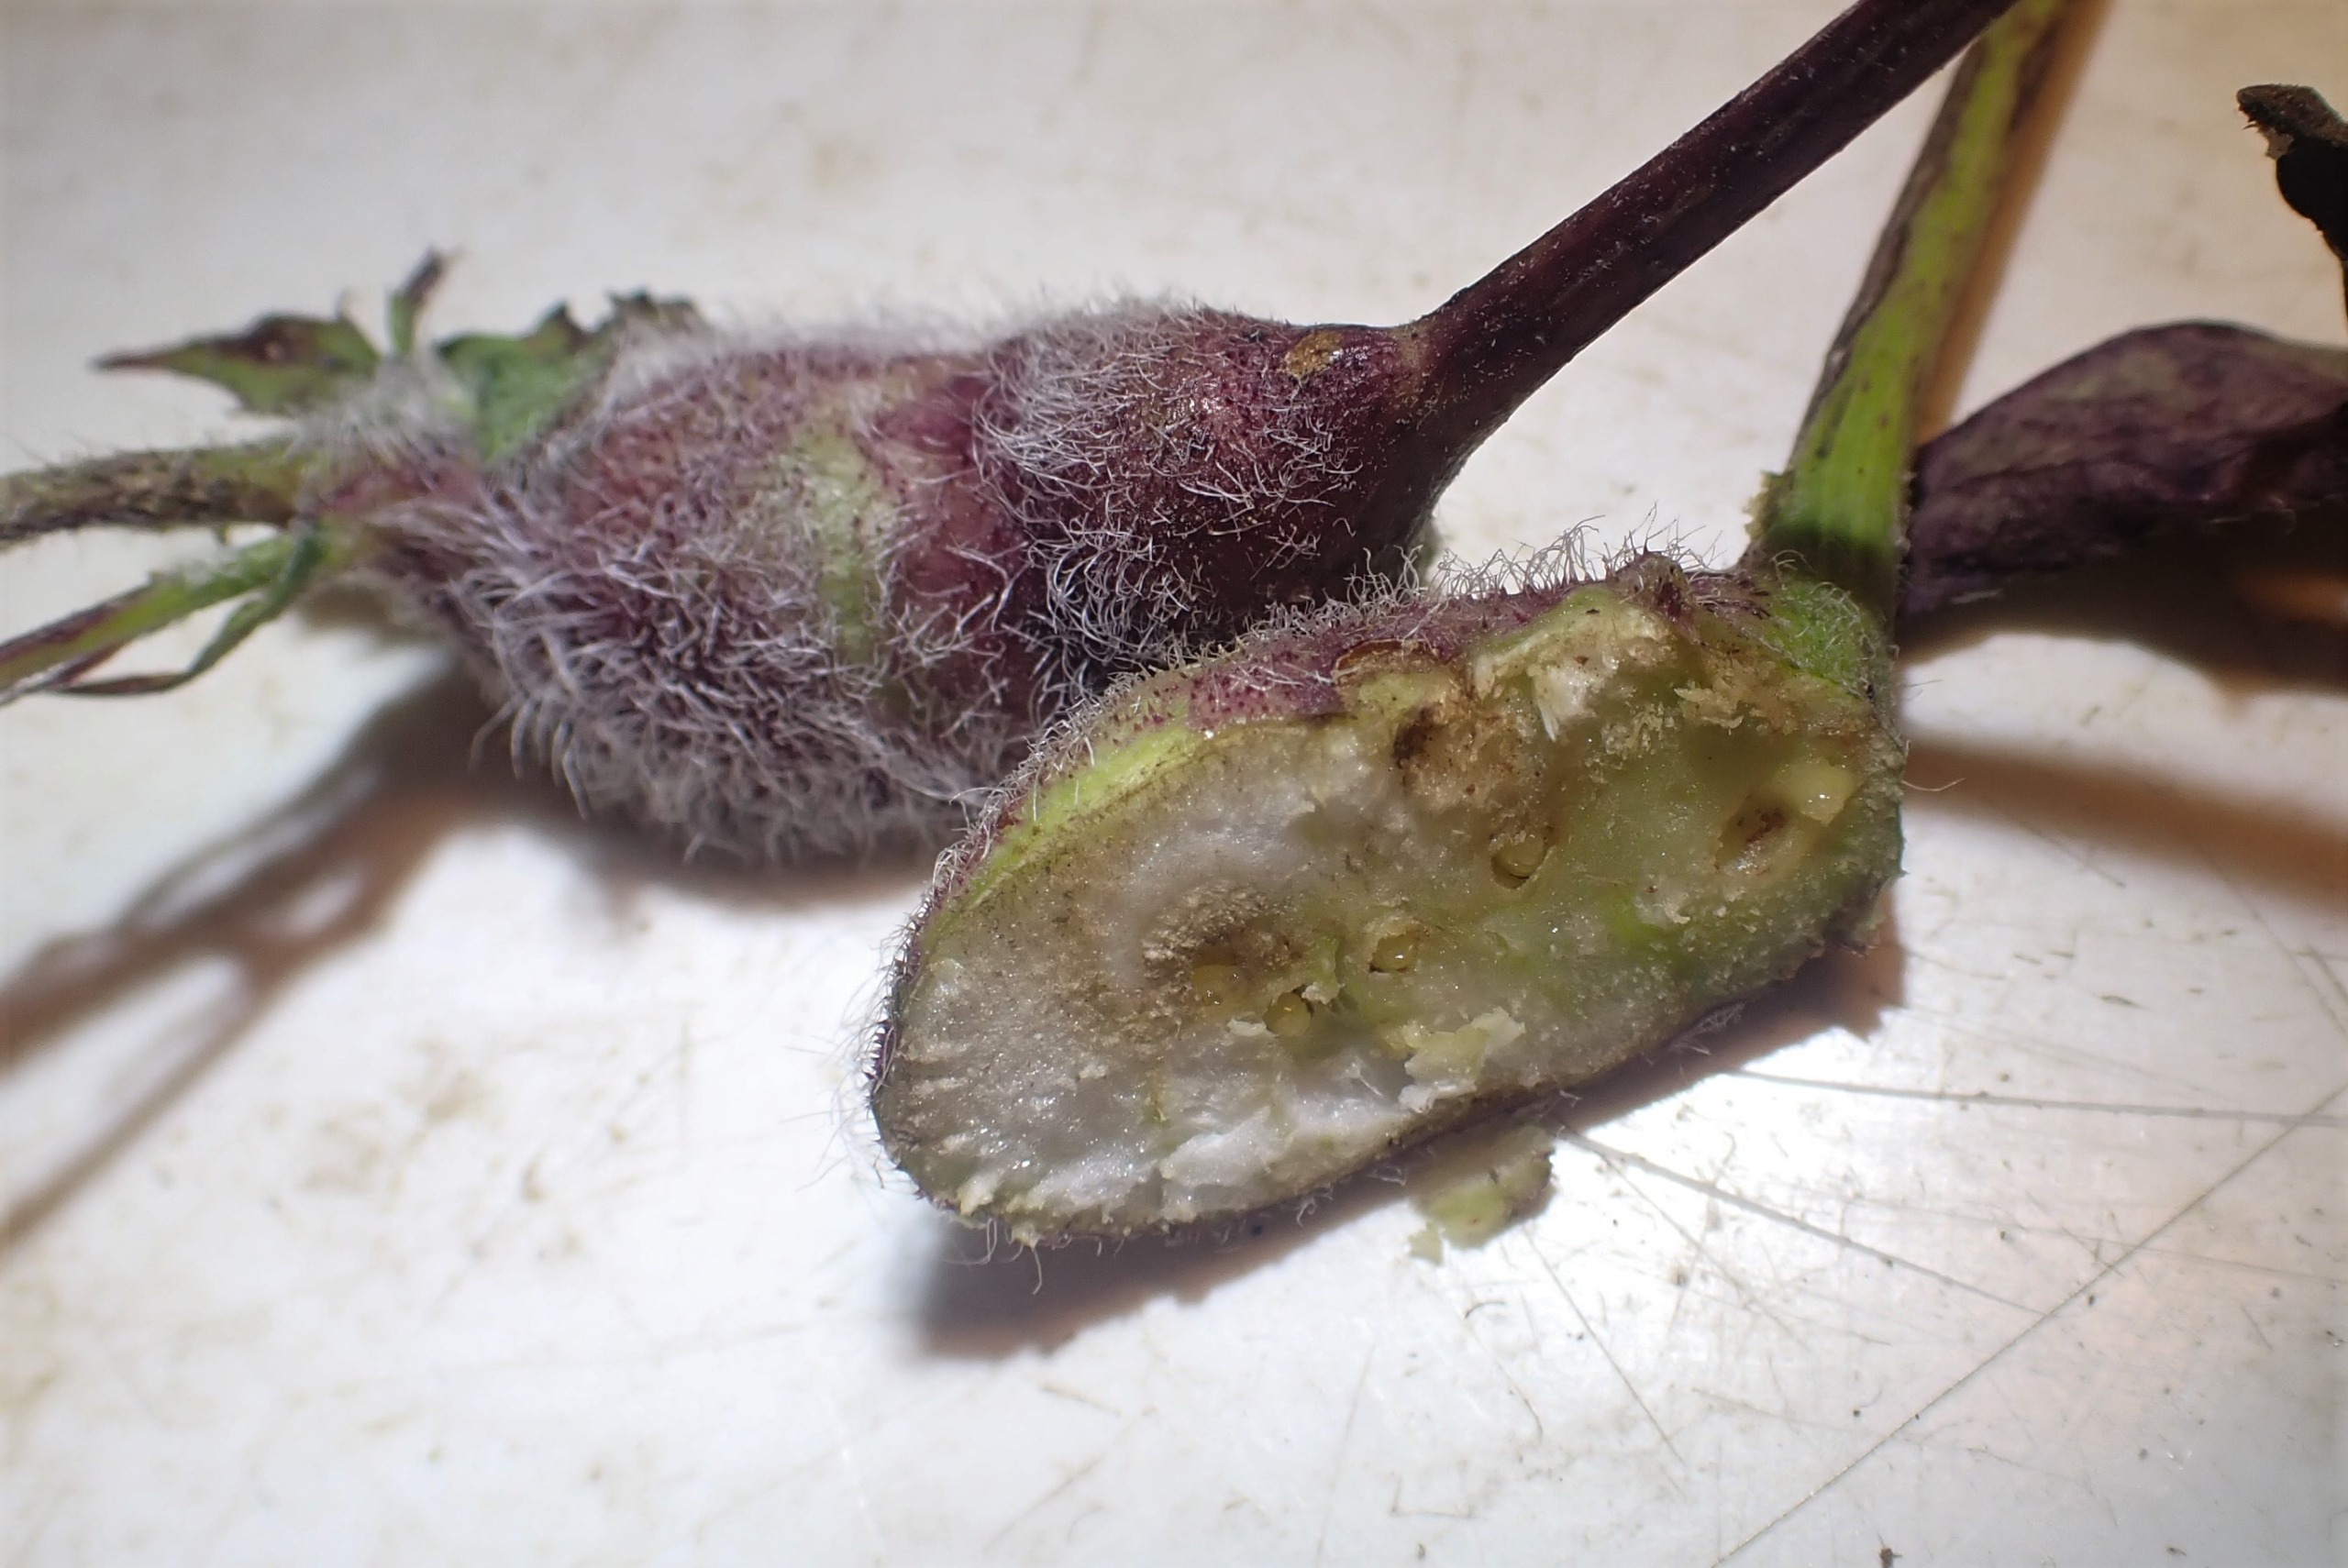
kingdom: Animalia
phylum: Arthropoda
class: Insecta
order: Hymenoptera
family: Cynipidae
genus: Aulacidea
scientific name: Aulacidea hieracii
